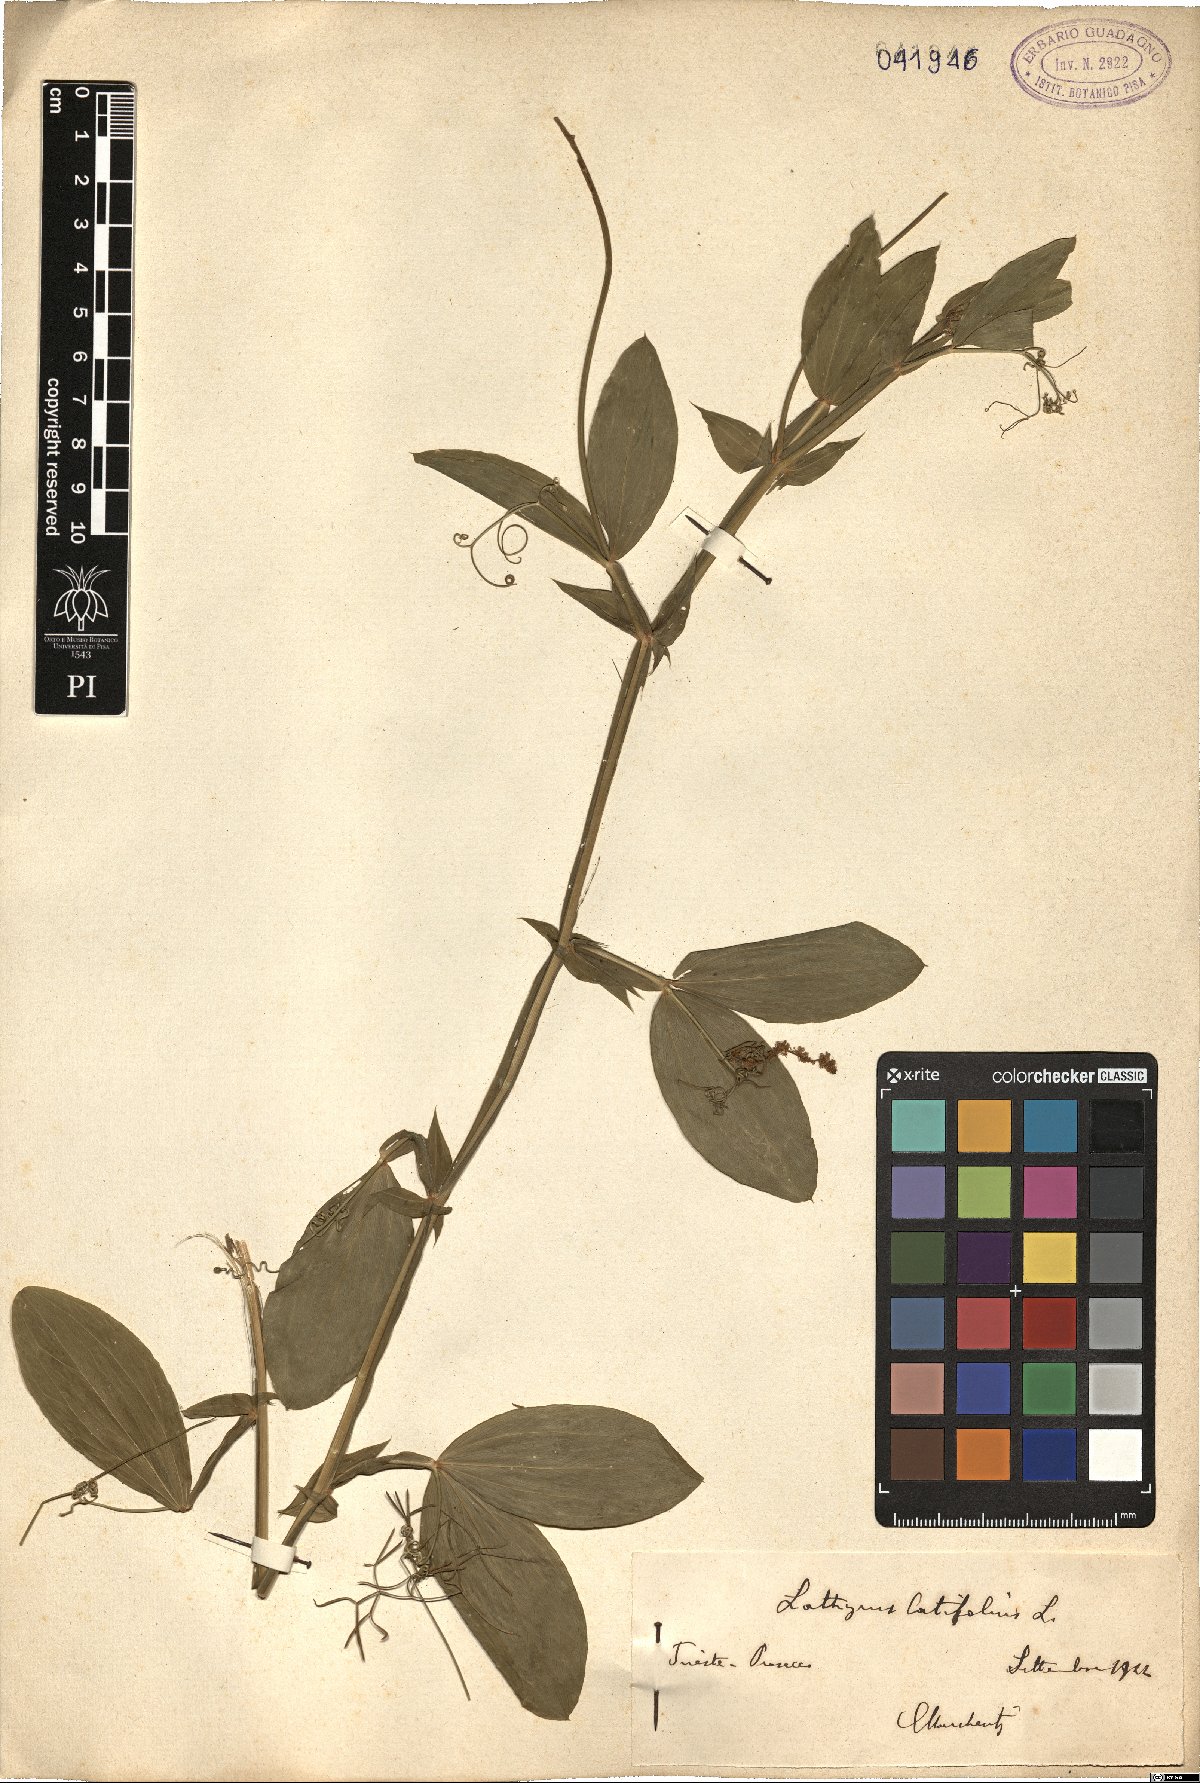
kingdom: Plantae
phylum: Tracheophyta
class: Magnoliopsida
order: Fabales
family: Fabaceae
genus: Lathyrus
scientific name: Lathyrus latifolius
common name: Perennial pea
